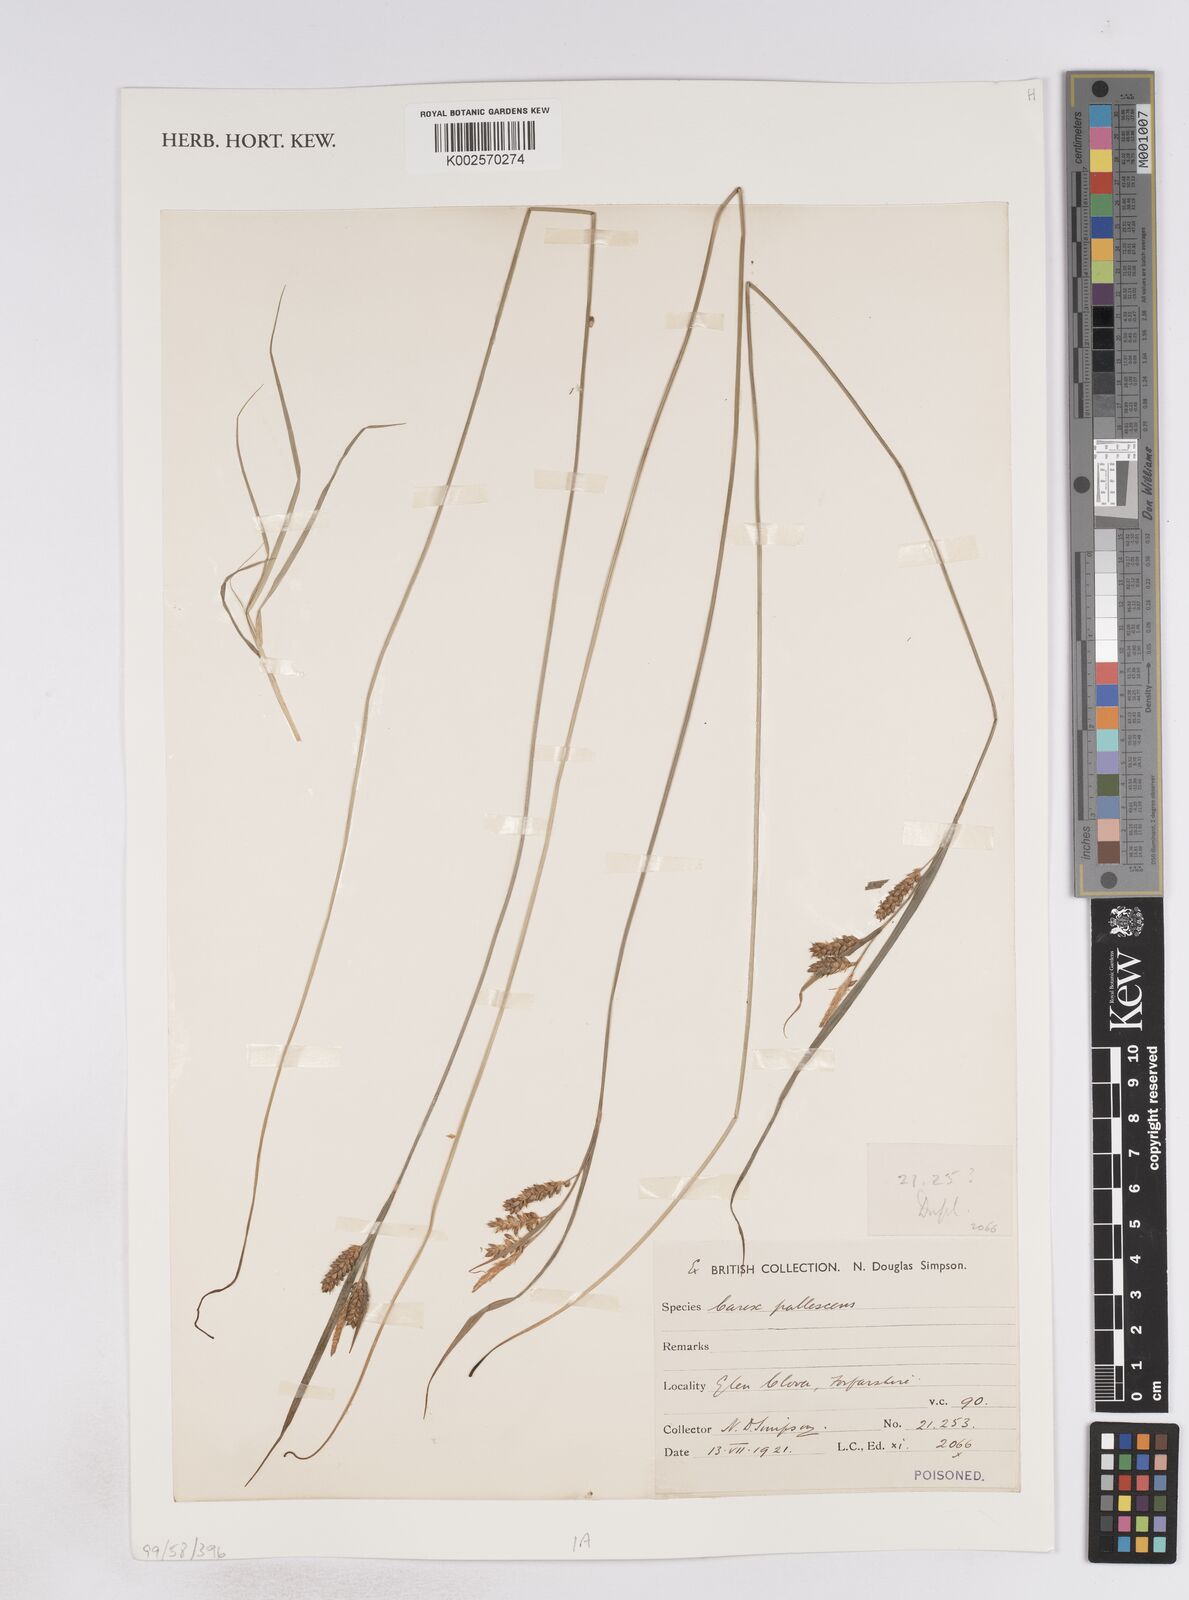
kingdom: Plantae
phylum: Tracheophyta
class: Liliopsida
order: Poales
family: Cyperaceae
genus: Carex
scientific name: Carex pallescens
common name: Pale sedge
